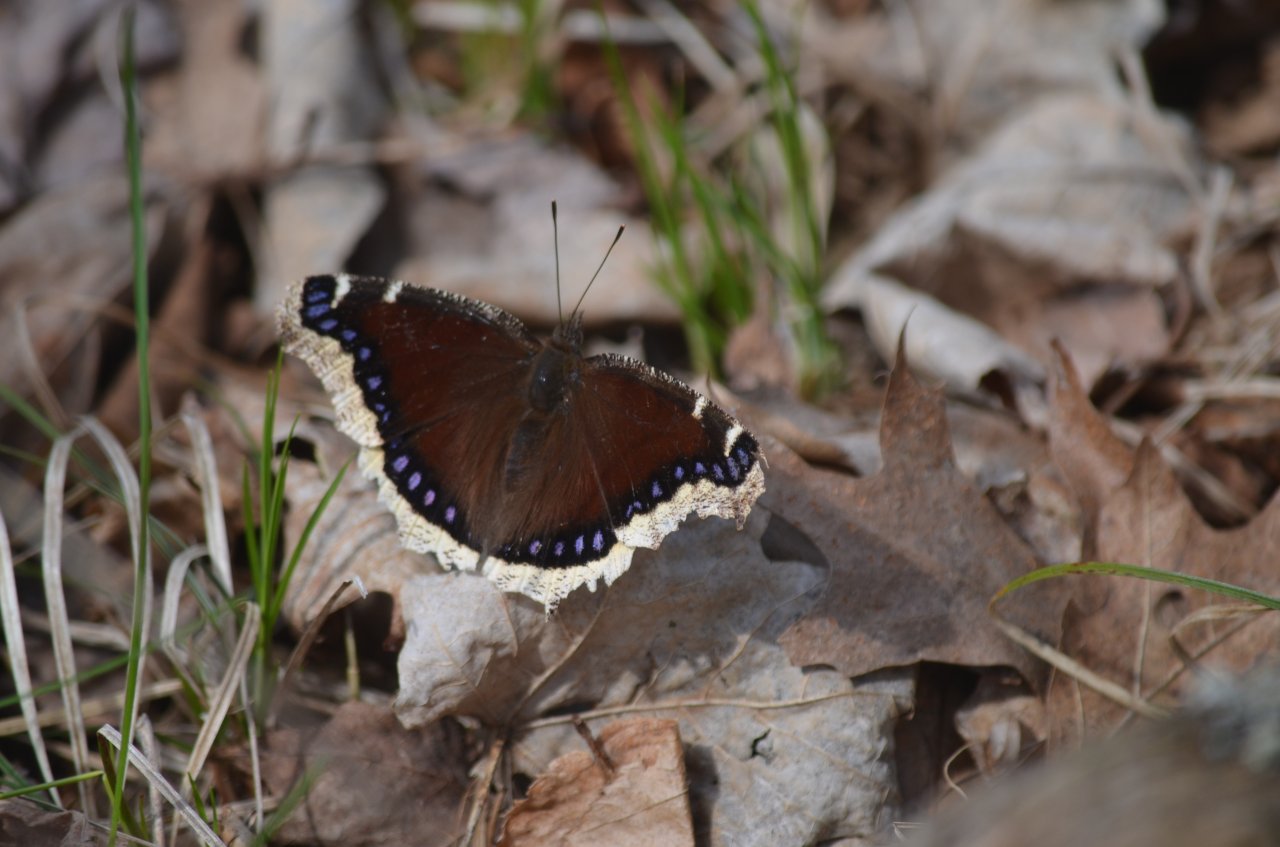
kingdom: Animalia
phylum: Arthropoda
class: Insecta
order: Lepidoptera
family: Nymphalidae
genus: Nymphalis
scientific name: Nymphalis antiopa
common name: Mourning Cloak
